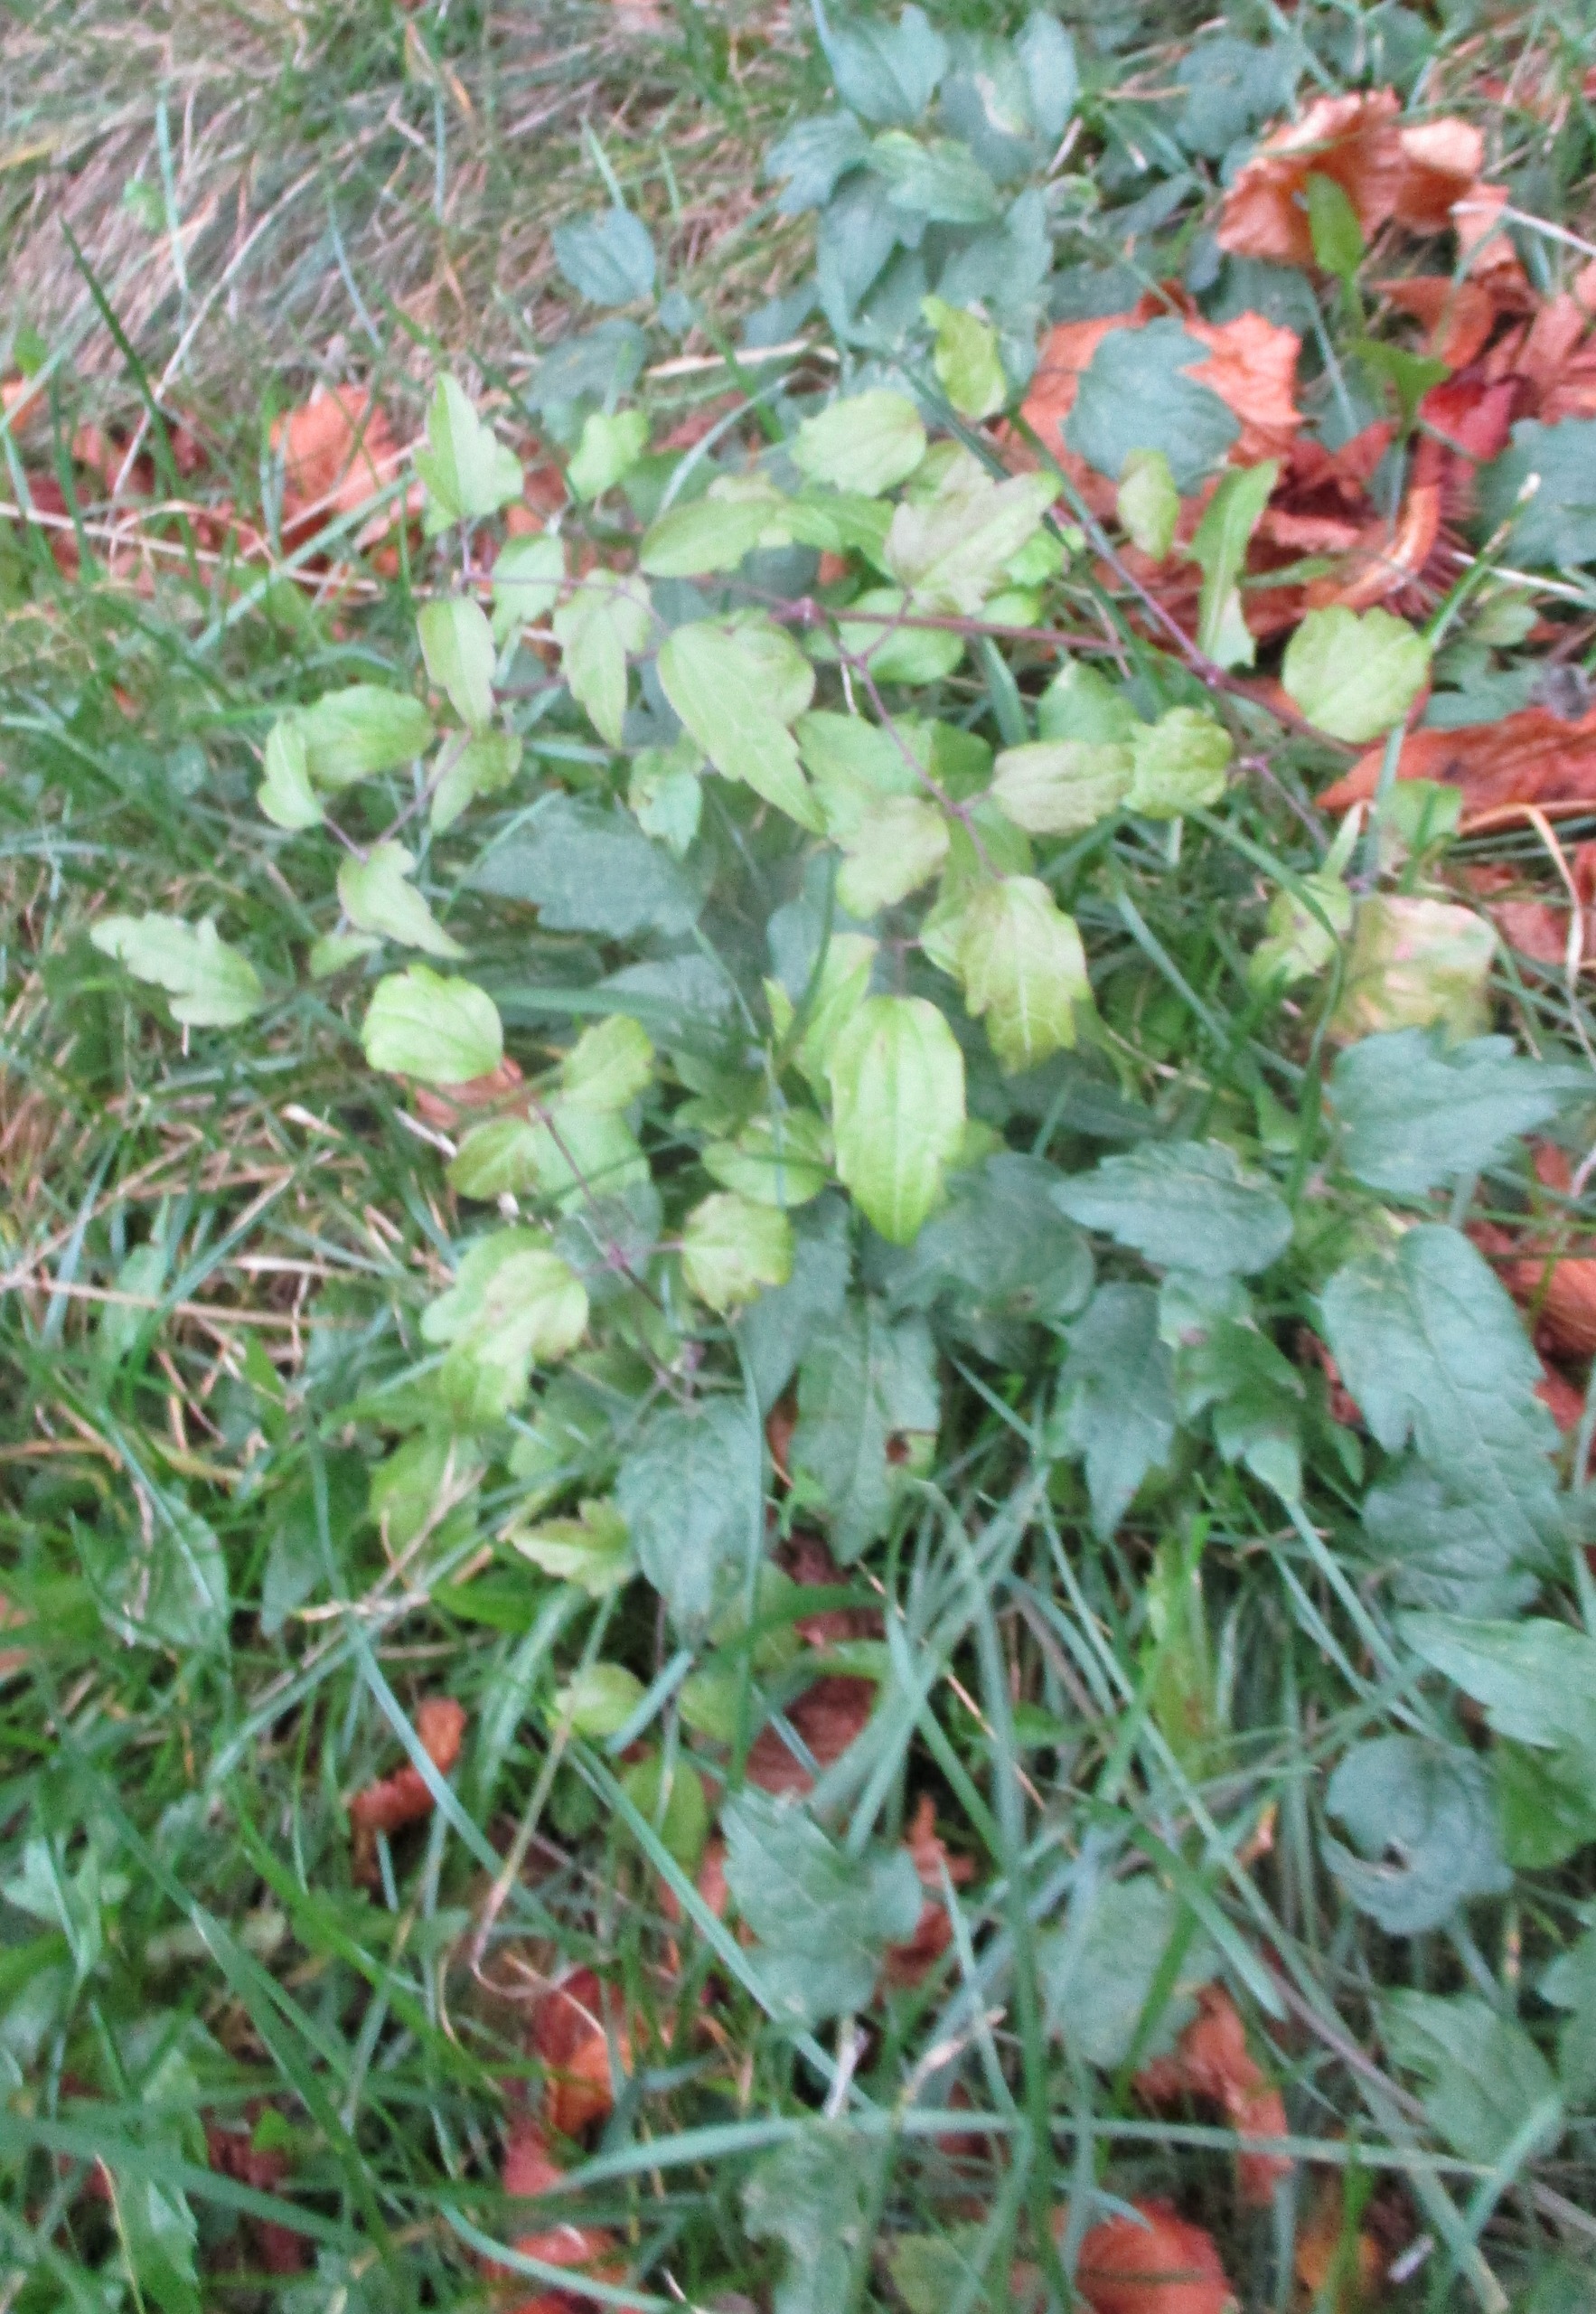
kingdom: Plantae
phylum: Tracheophyta
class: Magnoliopsida
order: Ranunculales
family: Ranunculaceae
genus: Clematis
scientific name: Clematis vitalba
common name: Skovranke
